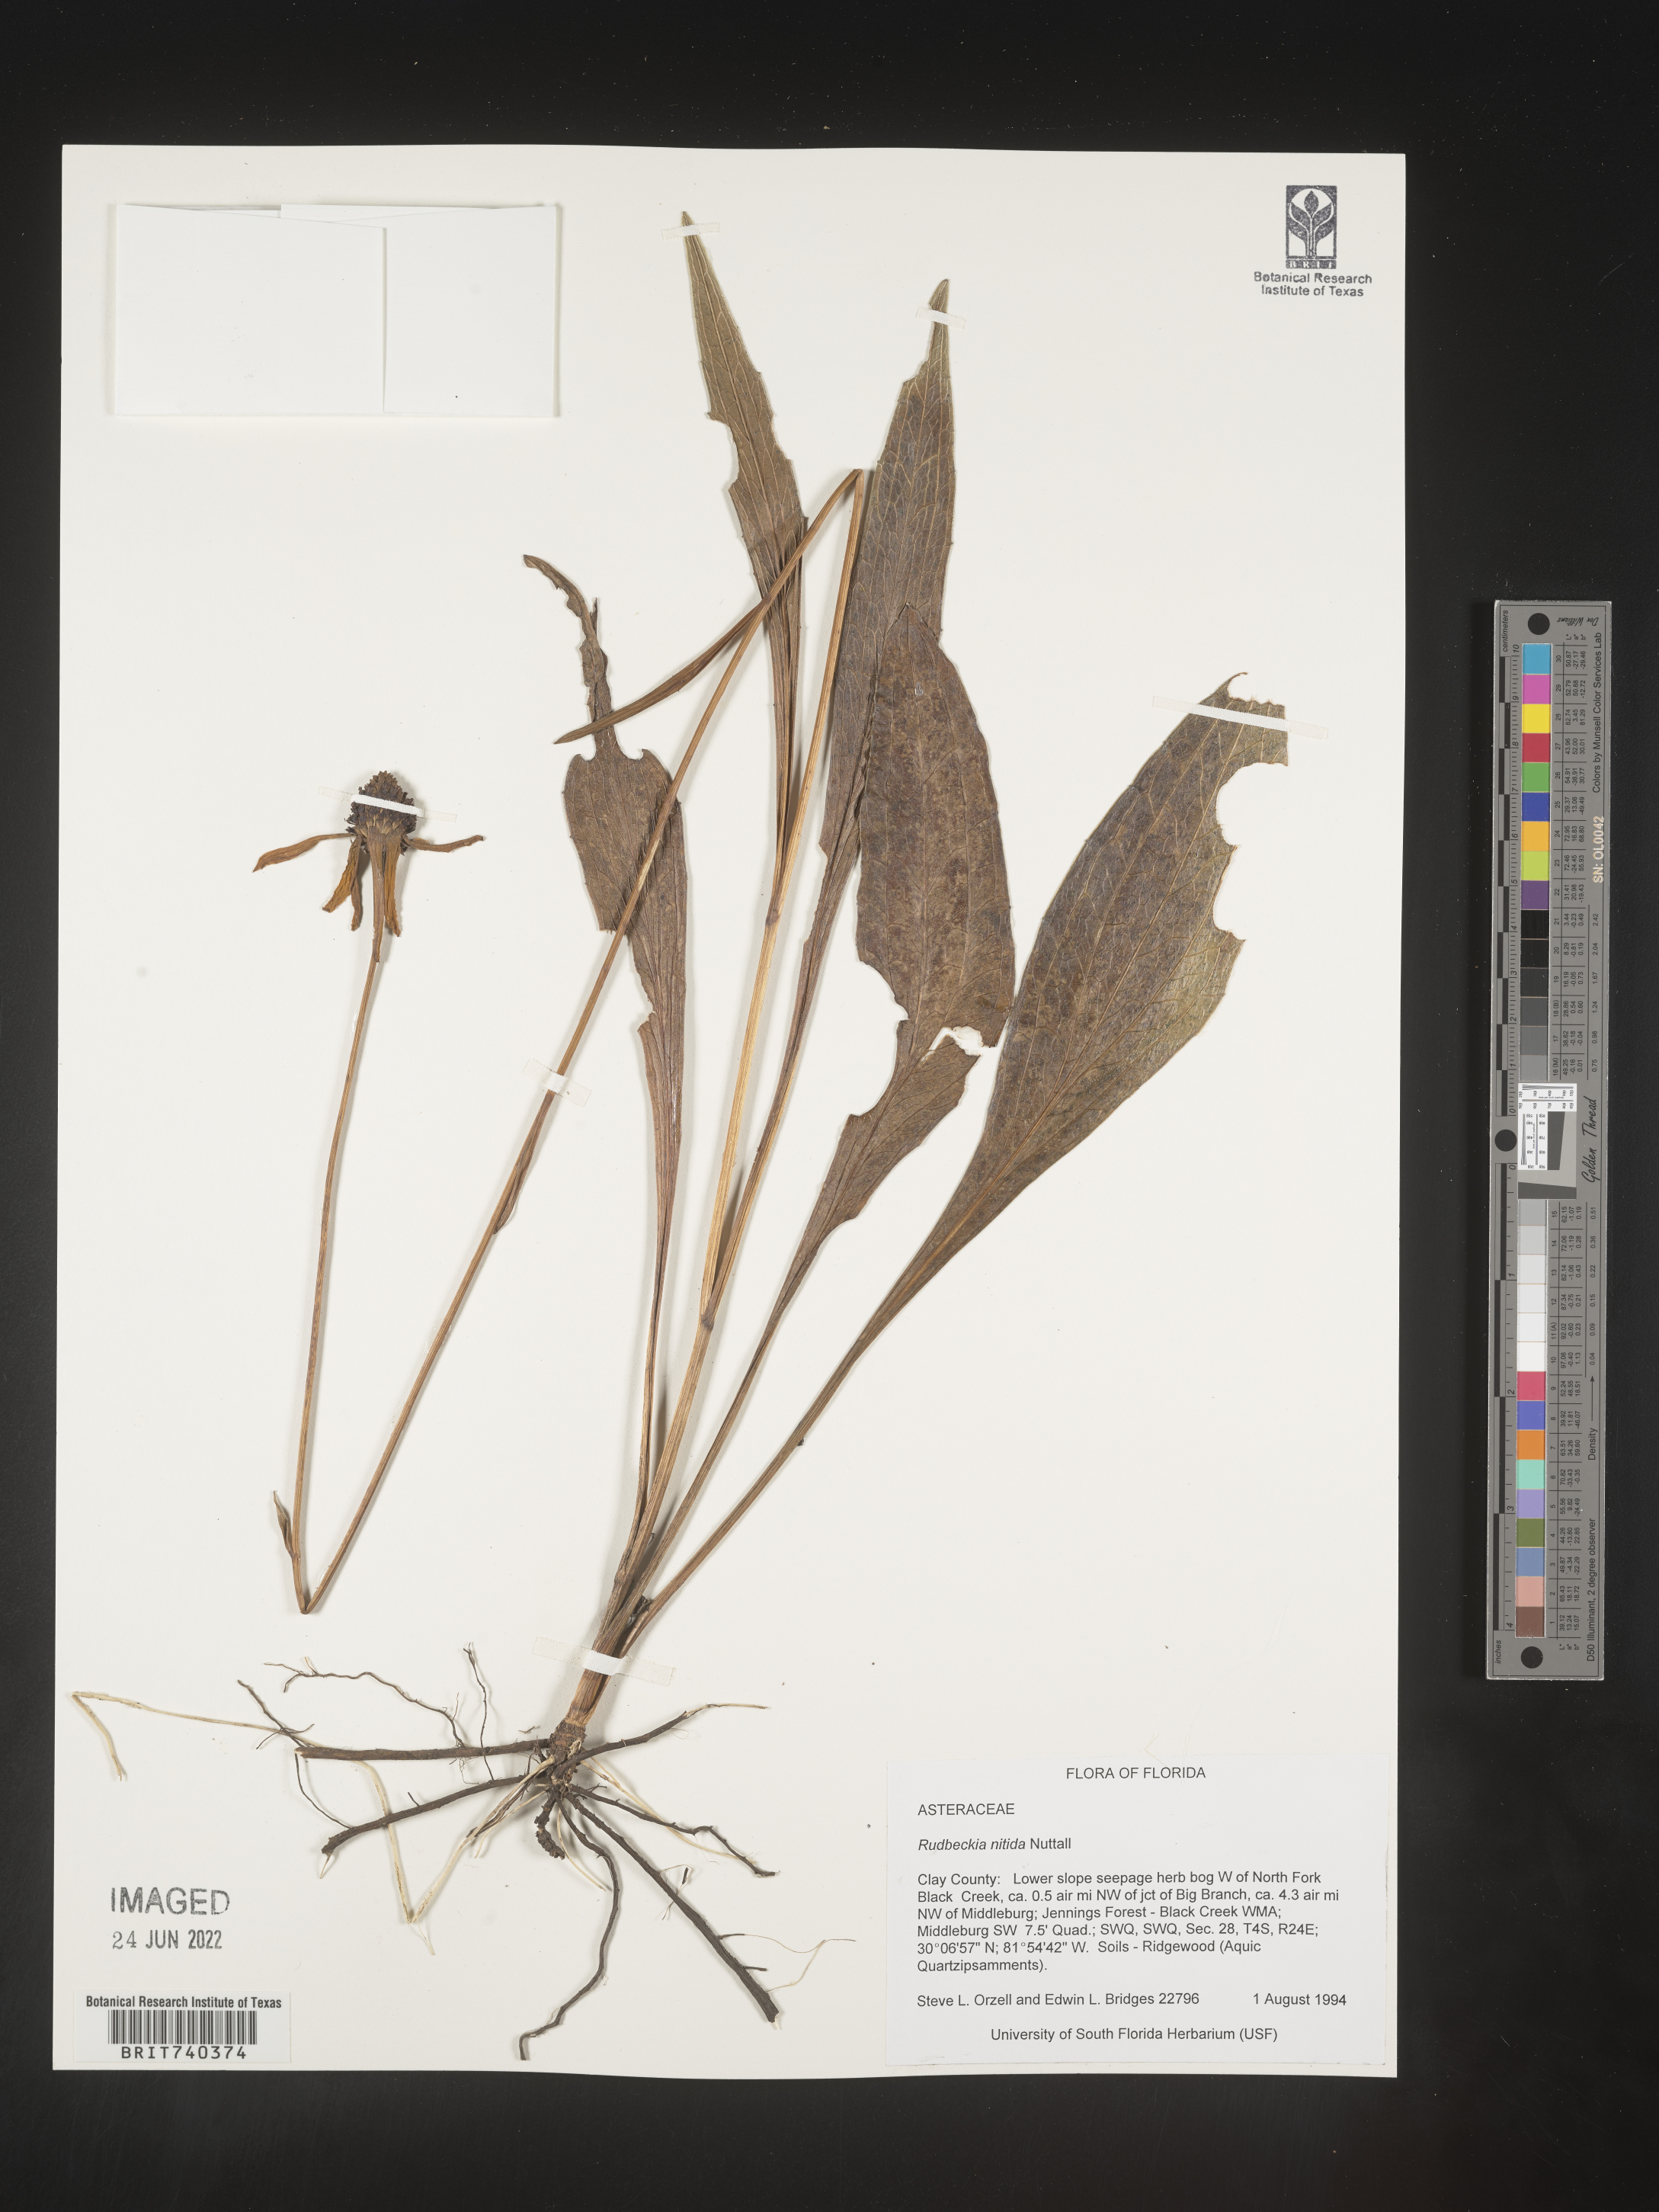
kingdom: Plantae
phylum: Tracheophyta
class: Magnoliopsida
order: Asterales
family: Asteraceae
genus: Rudbeckia
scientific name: Rudbeckia nitida
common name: Black-eyed-susan
